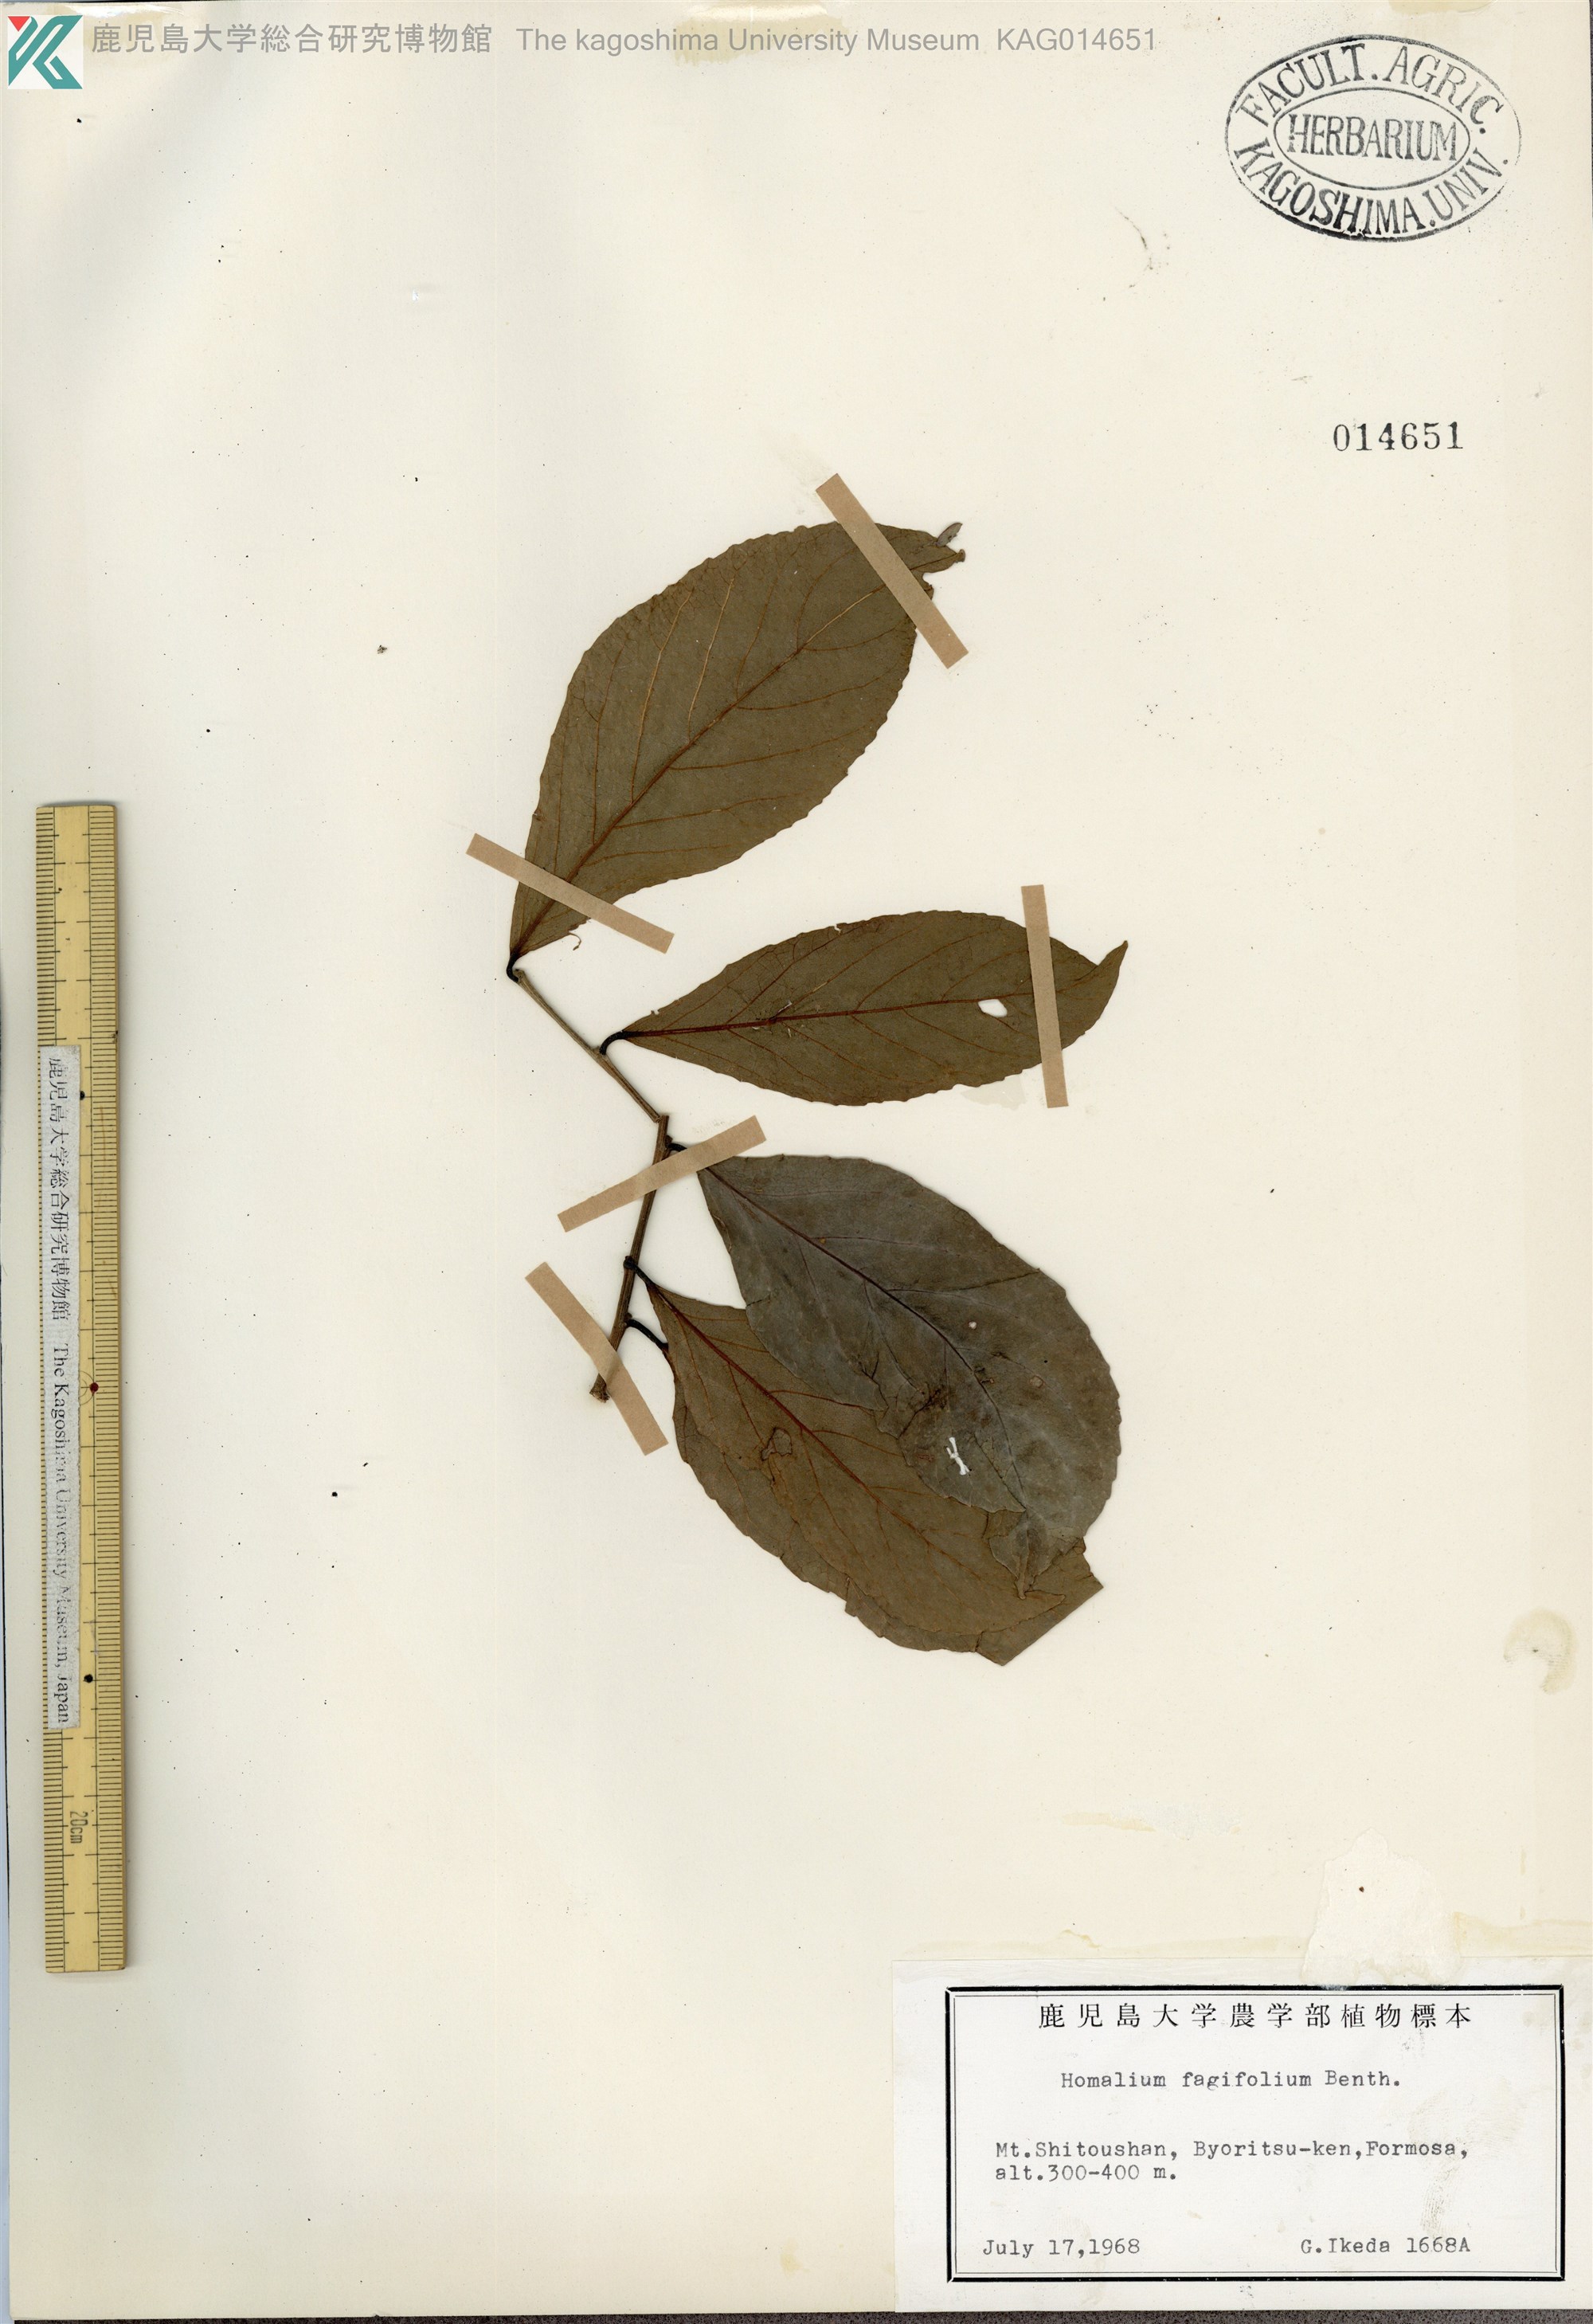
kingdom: Plantae
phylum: Tracheophyta
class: Magnoliopsida
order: Malpighiales
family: Salicaceae
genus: Homalium
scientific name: Homalium cochinchinensis
